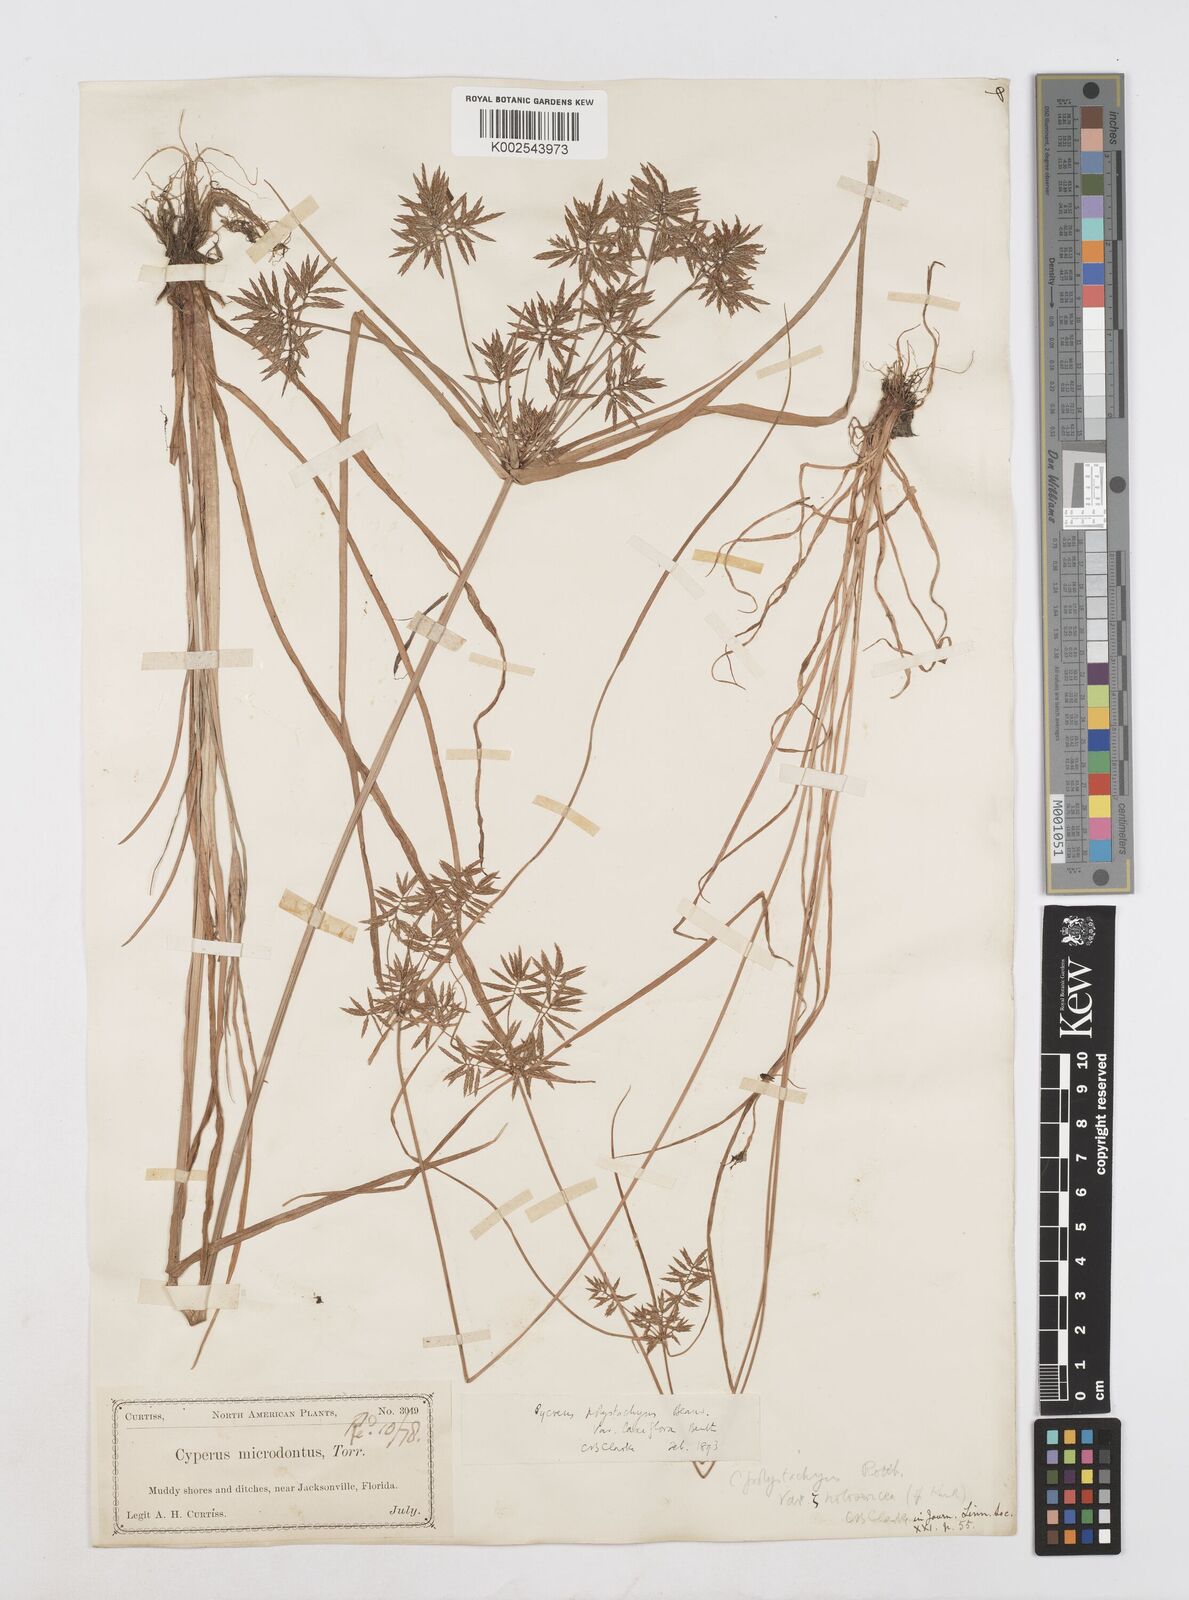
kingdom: Plantae
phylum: Tracheophyta
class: Liliopsida
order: Poales
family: Cyperaceae
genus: Cyperus
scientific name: Cyperus polystachyos
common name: Bunchy flat sedge
